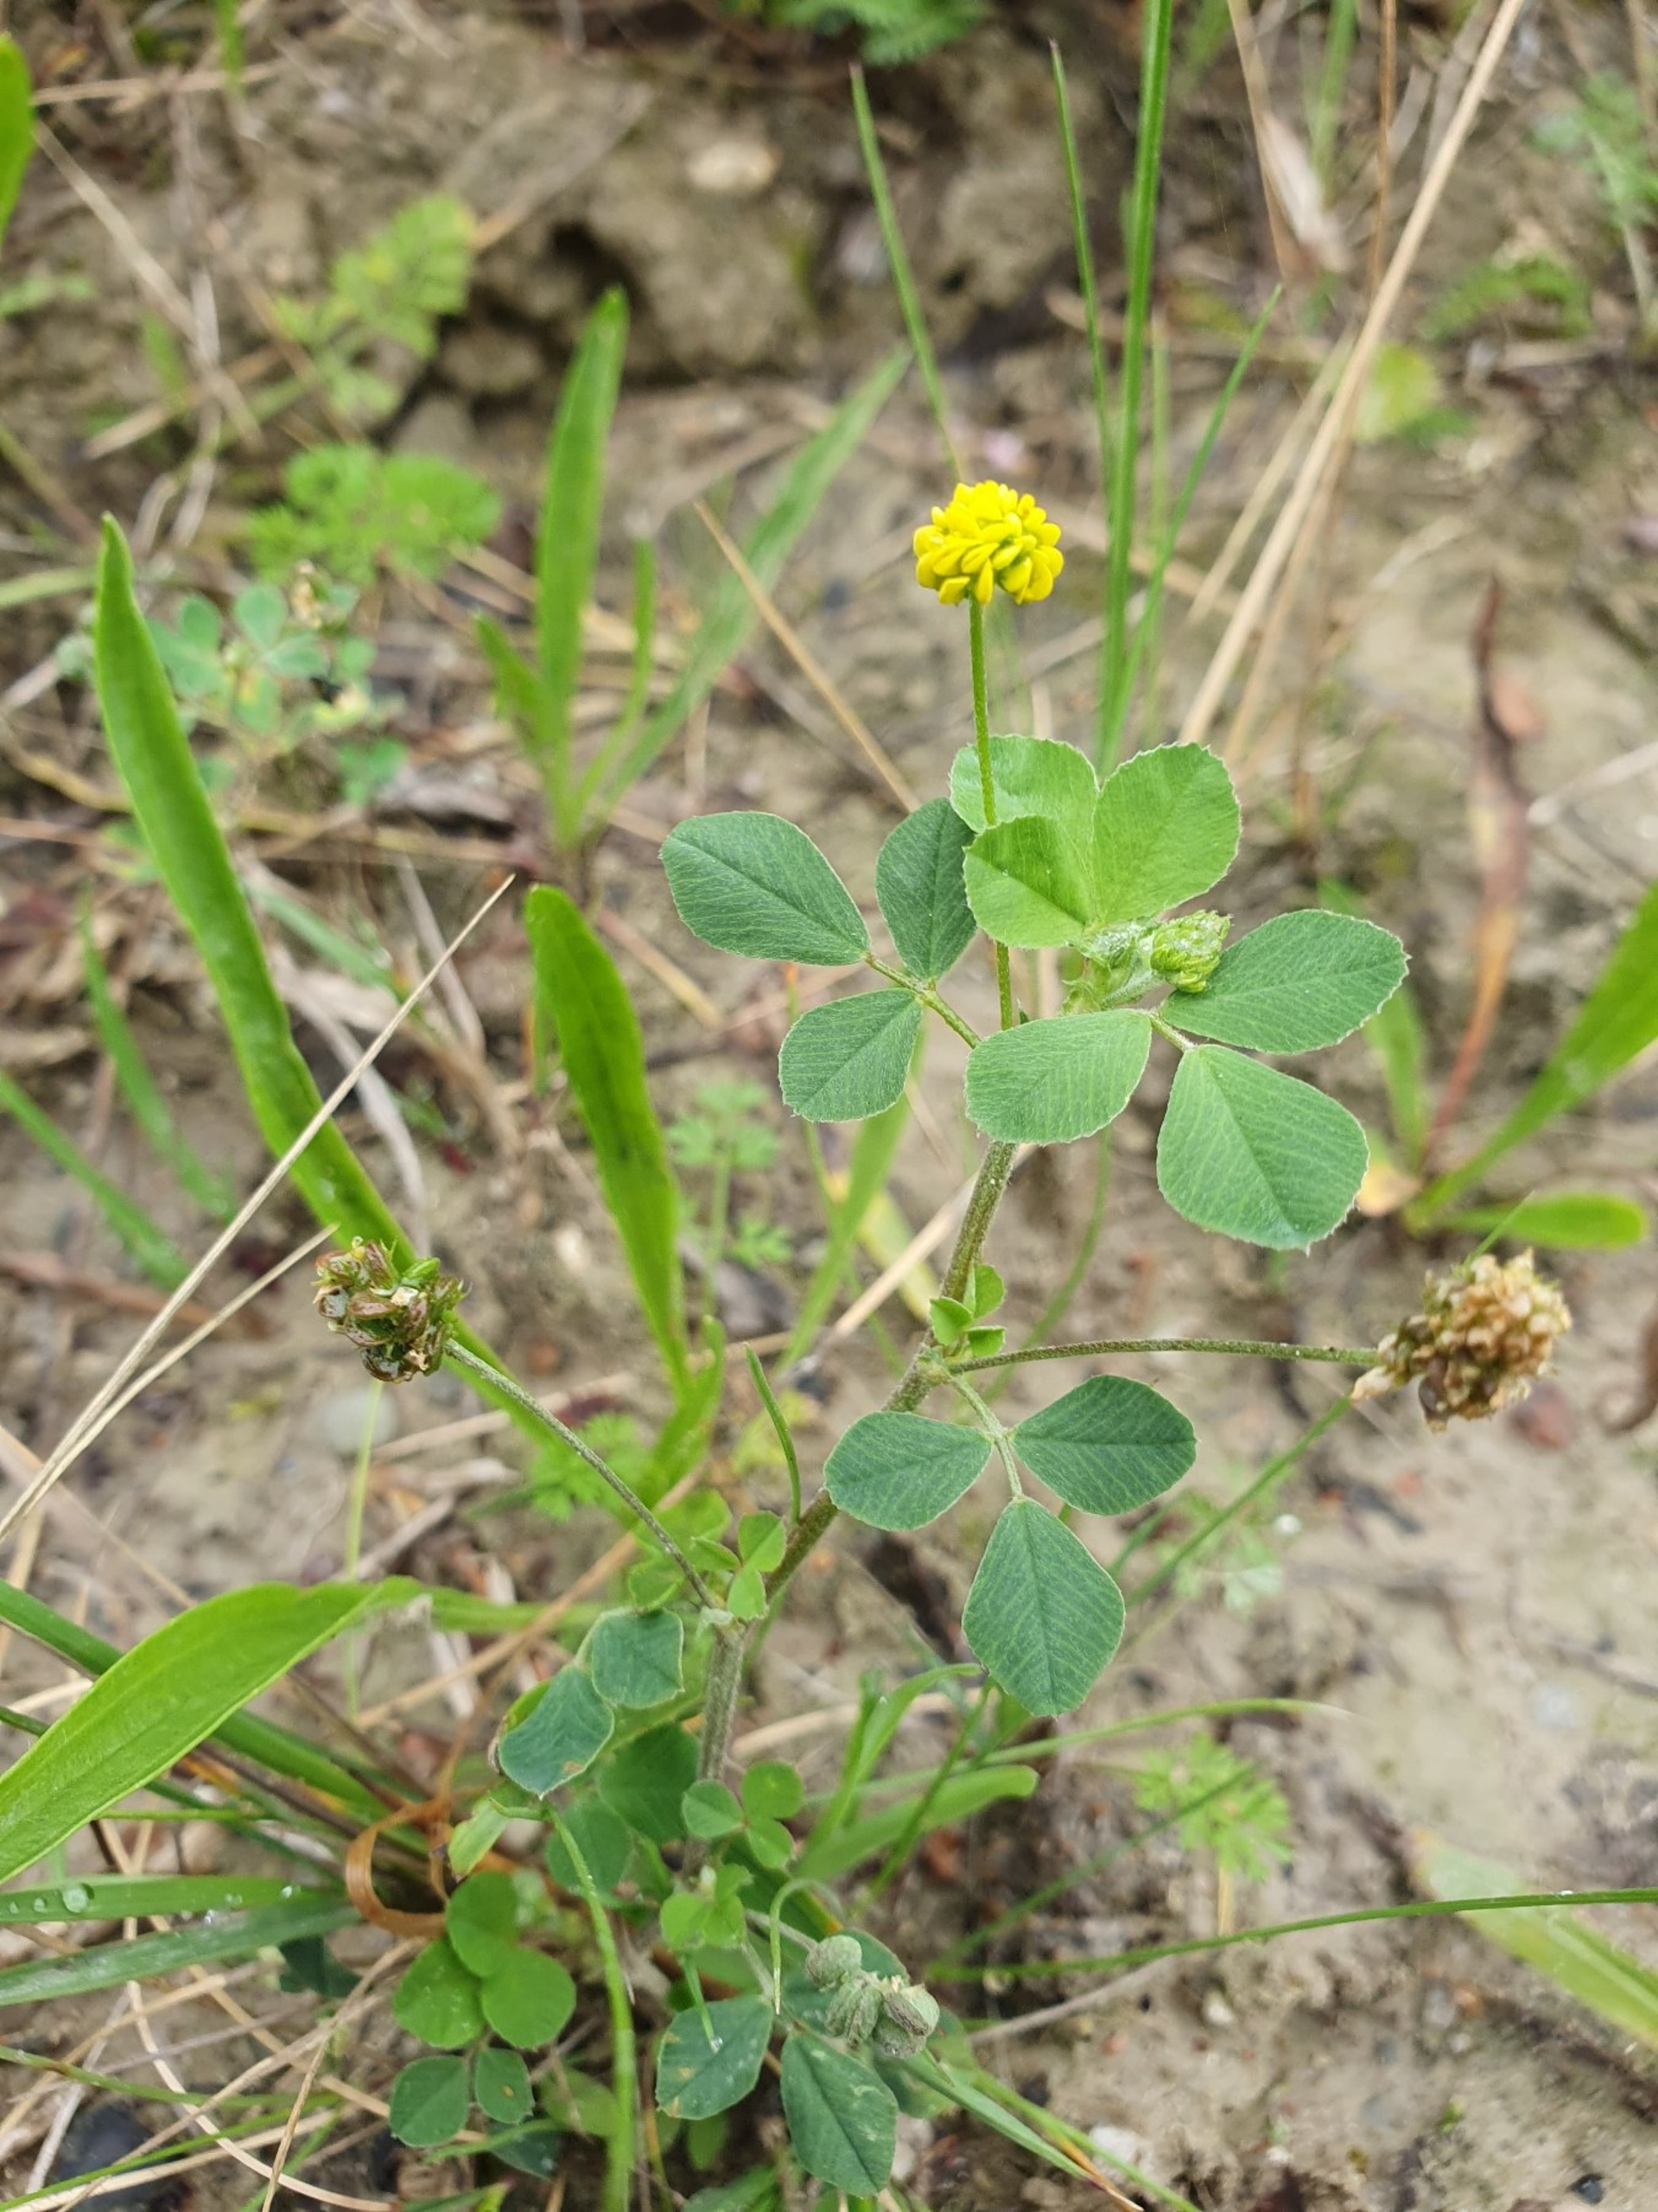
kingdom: Plantae
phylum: Tracheophyta
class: Magnoliopsida
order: Fabales
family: Fabaceae
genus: Medicago
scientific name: Medicago lupulina
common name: Humle-sneglebælg
